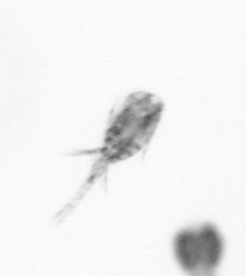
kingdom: Animalia
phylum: Arthropoda
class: Copepoda
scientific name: Copepoda
